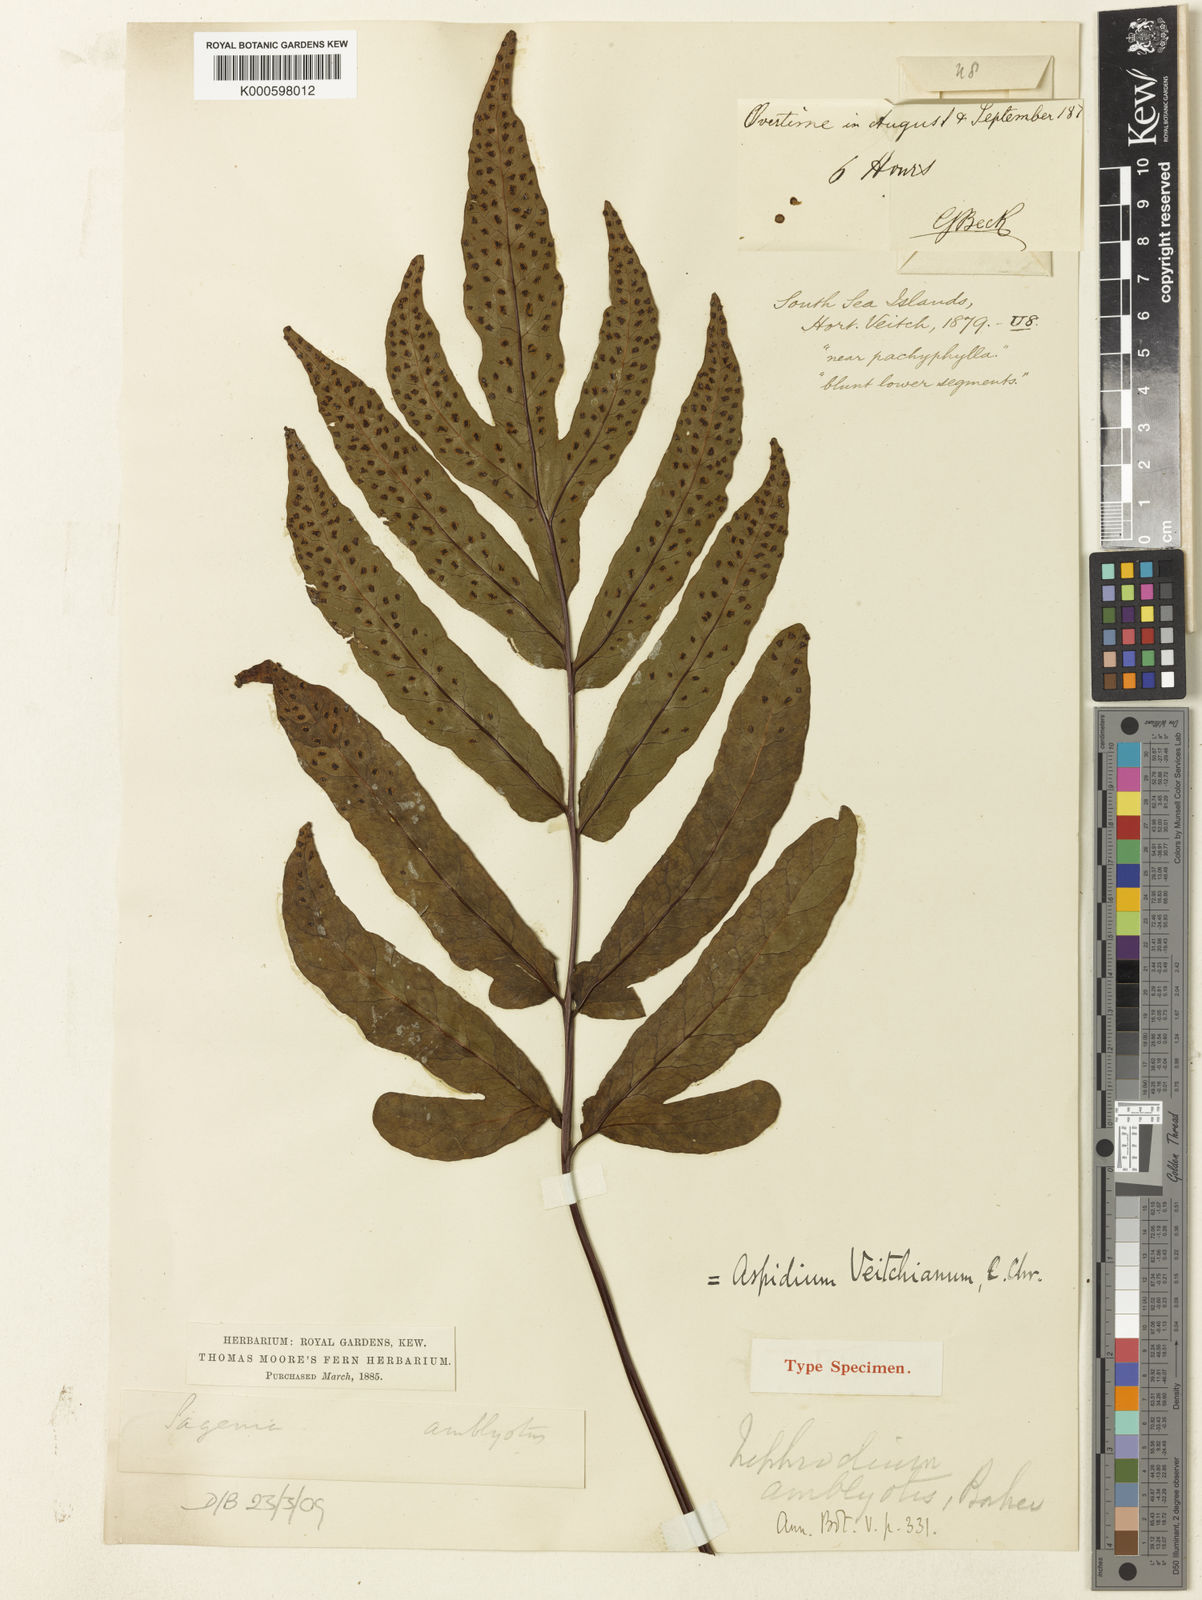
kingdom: Plantae
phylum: Tracheophyta
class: Polypodiopsida
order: Polypodiales
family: Tectariaceae
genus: Tectaria
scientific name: Tectaria amblyotis
